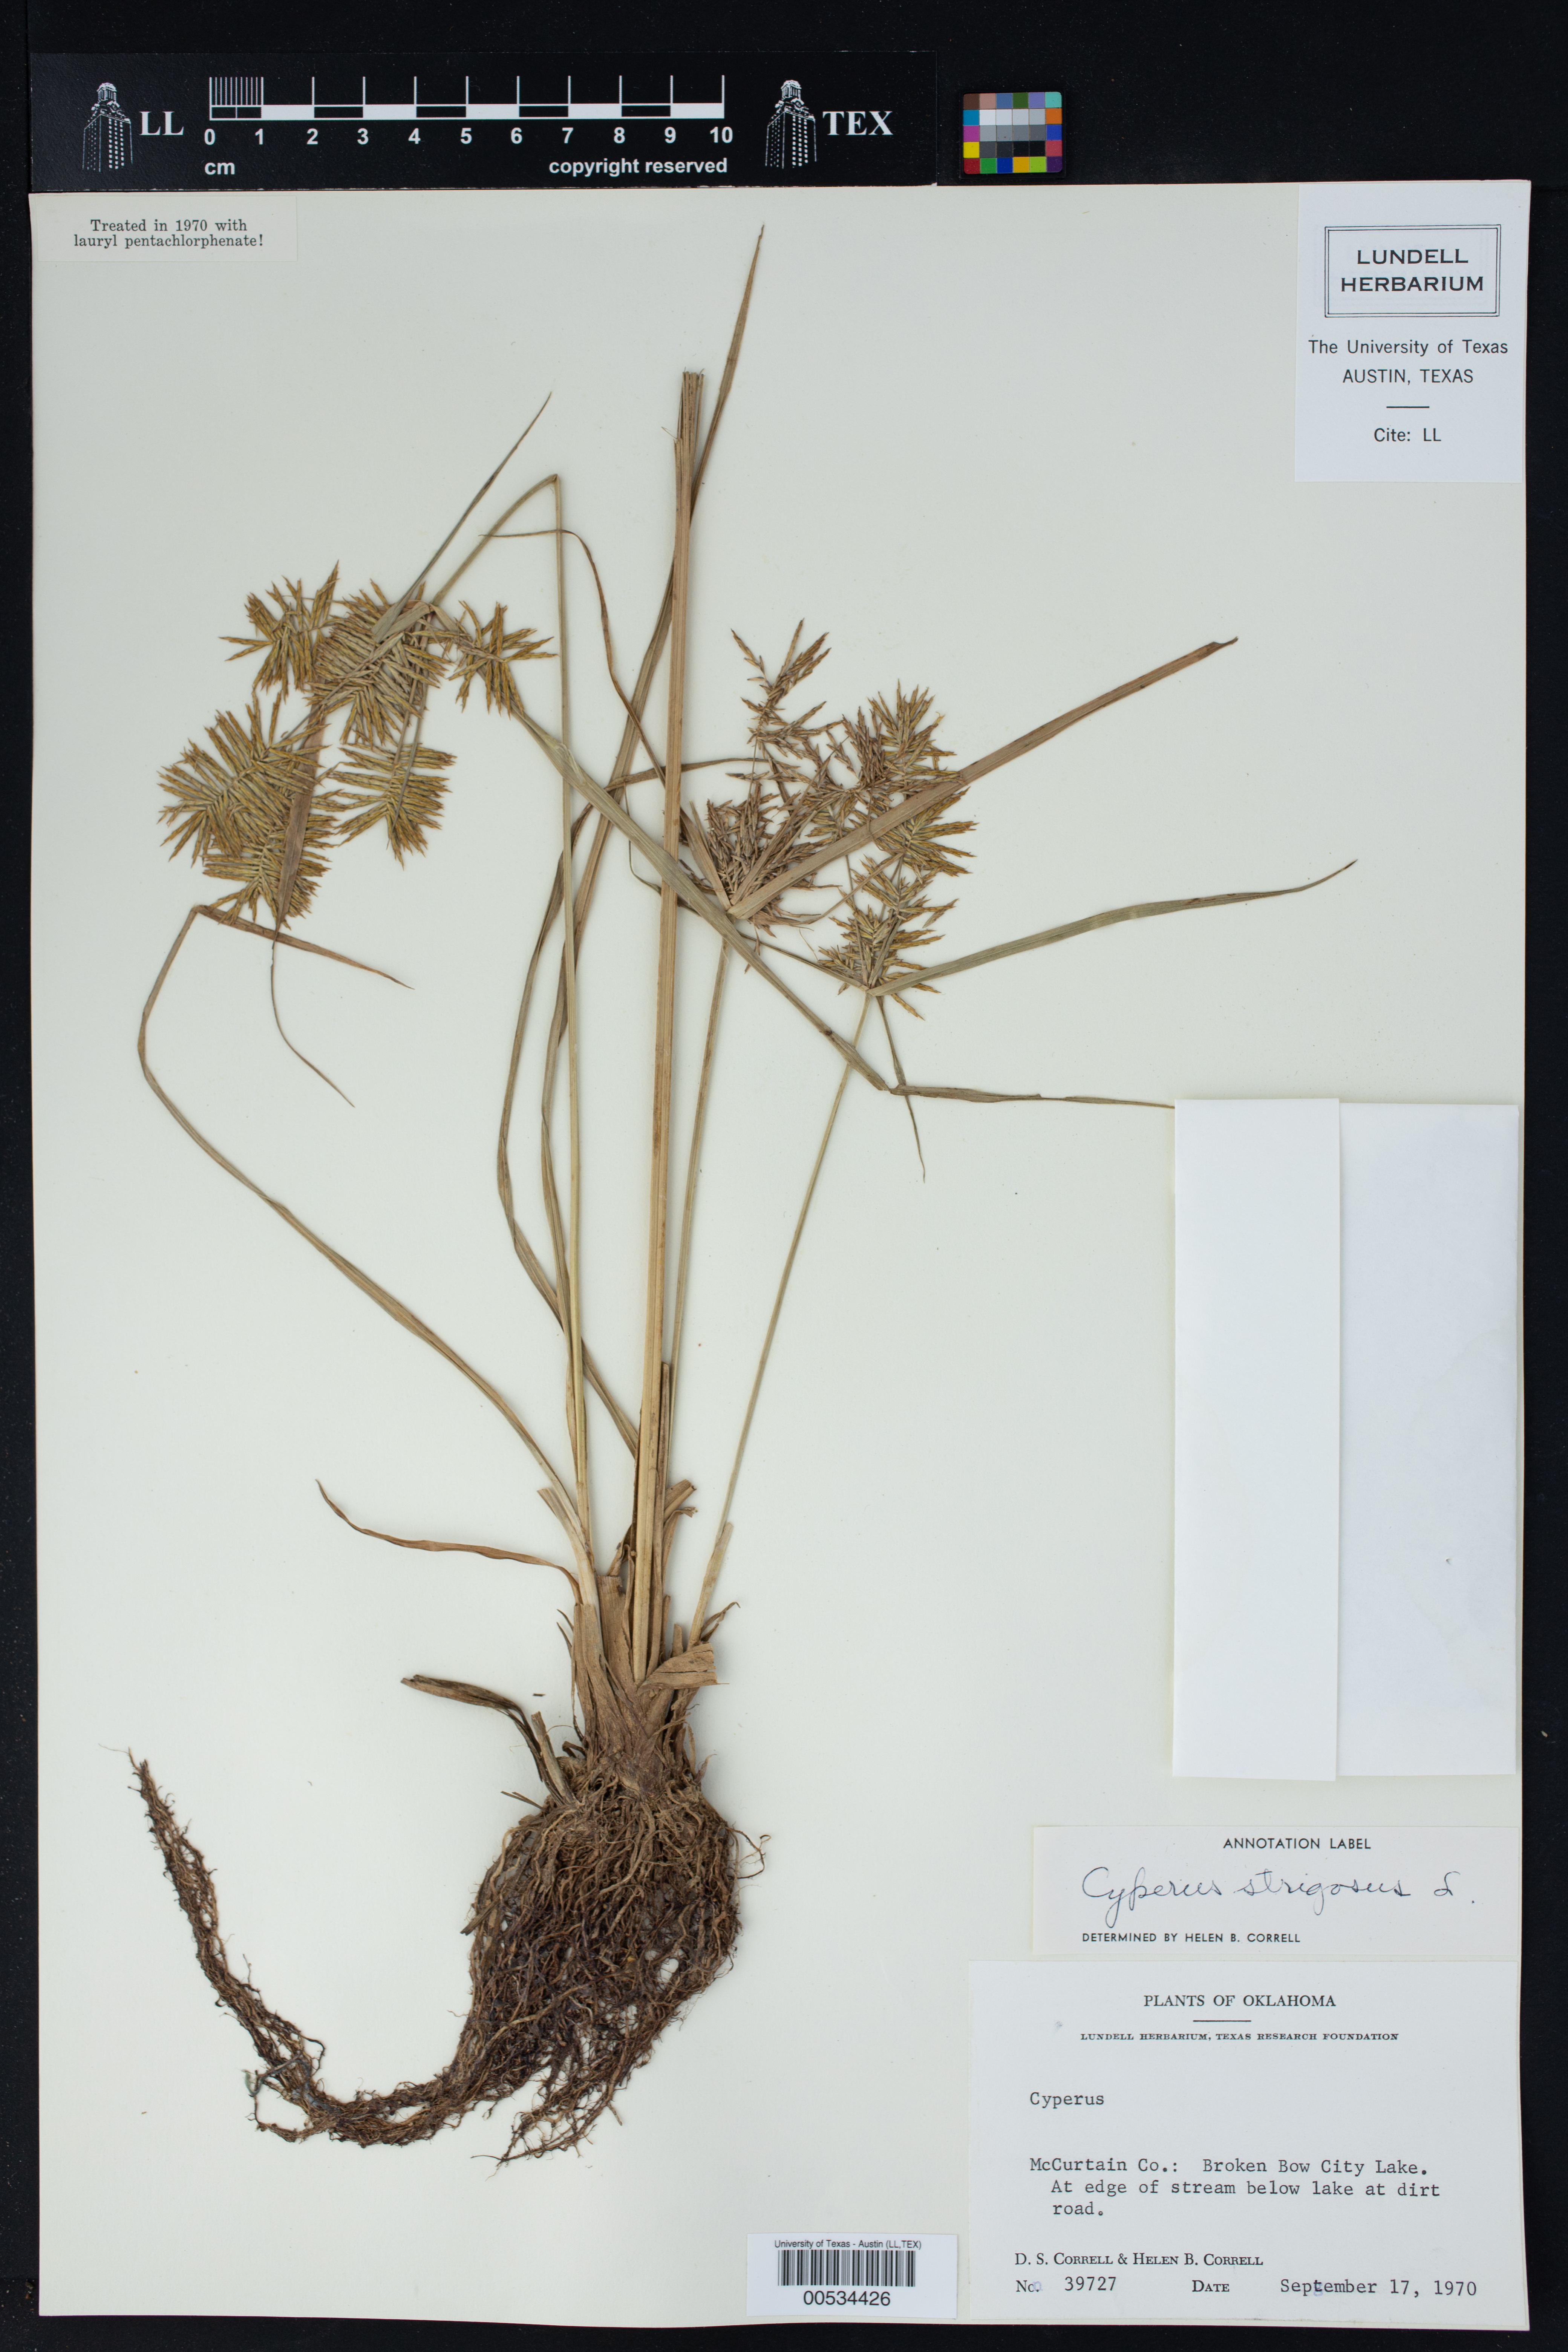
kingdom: Plantae
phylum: Tracheophyta
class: Liliopsida
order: Poales
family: Cyperaceae
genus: Cyperus
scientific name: Cyperus strigosus
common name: False nutsedge
